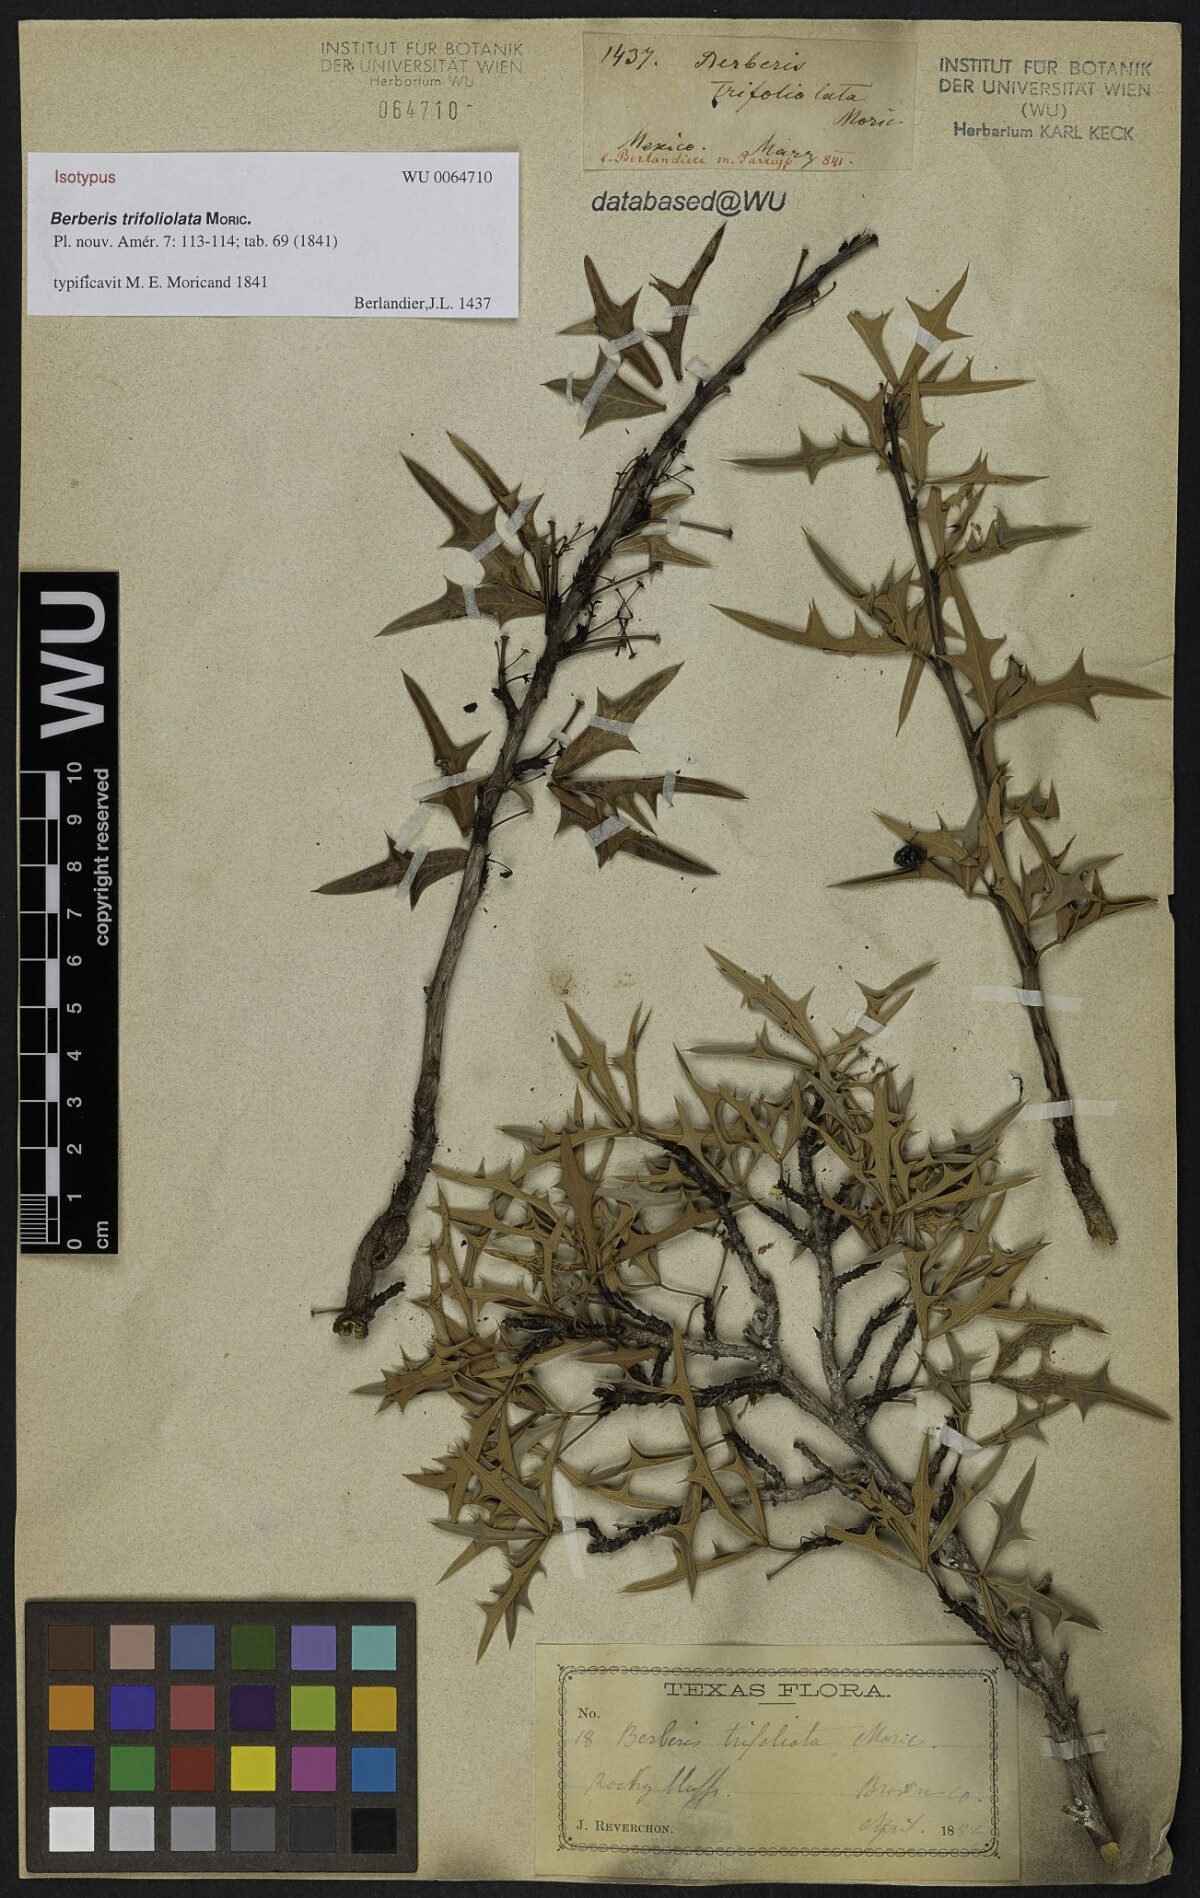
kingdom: Plantae
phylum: Tracheophyta
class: Magnoliopsida
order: Ranunculales
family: Berberidaceae
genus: Alloberberis
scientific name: Alloberberis trifoliolata
